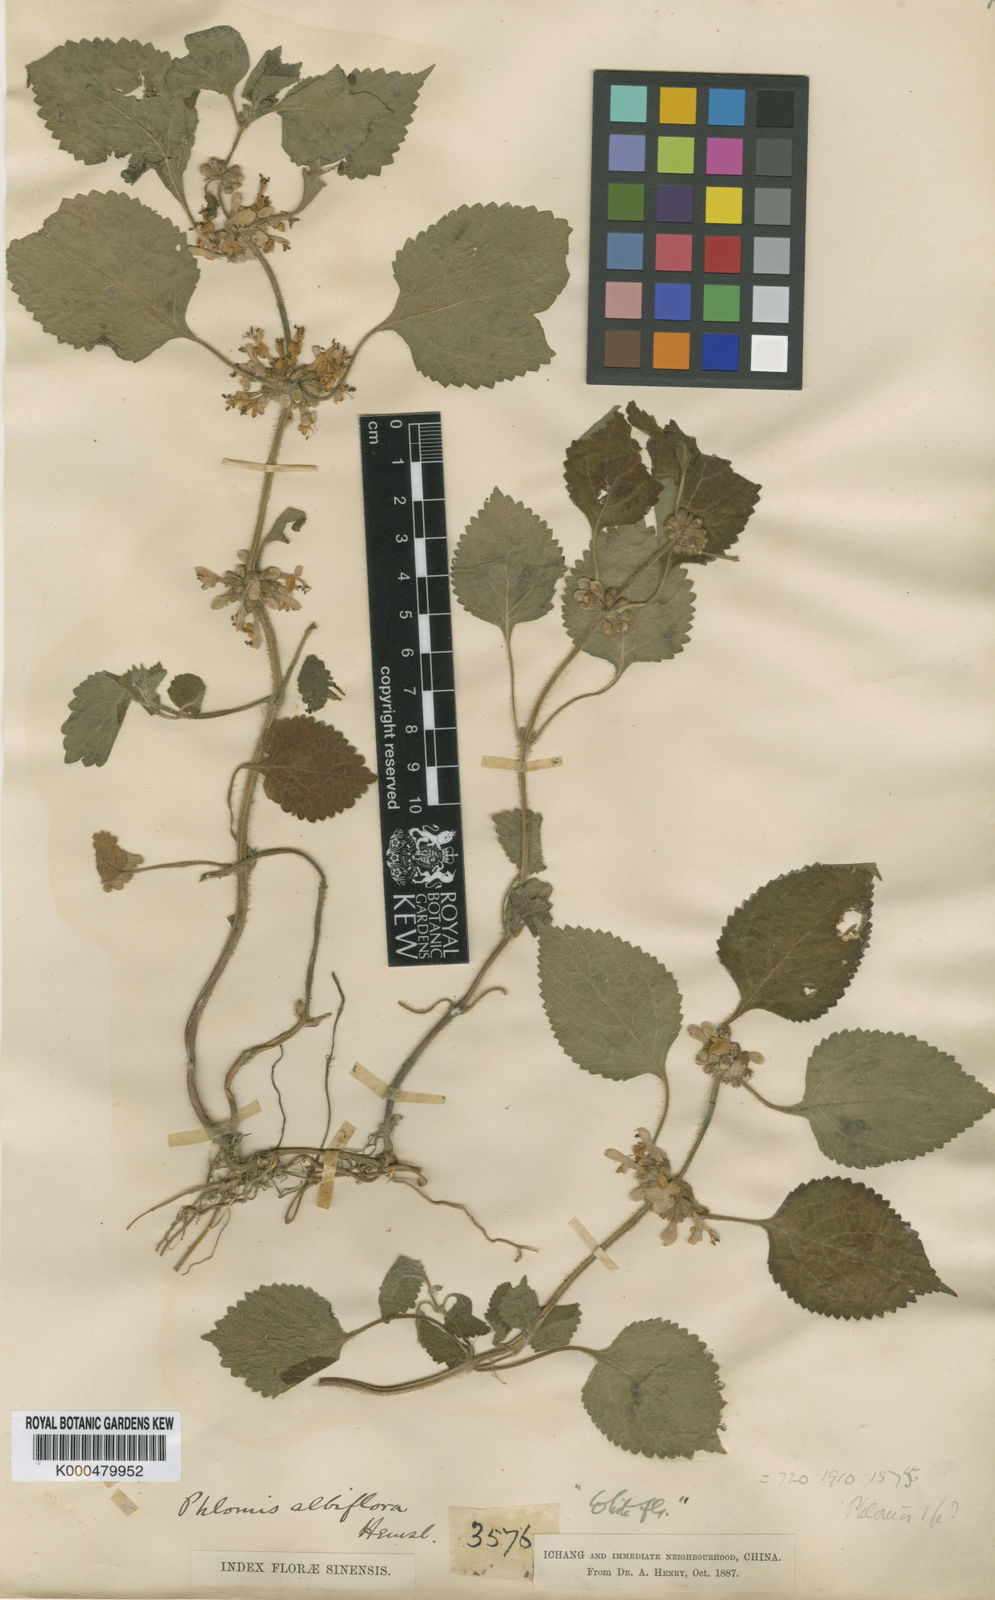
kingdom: Plantae
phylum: Tracheophyta
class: Magnoliopsida
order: Lamiales
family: Lamiaceae
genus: Paraphlomis
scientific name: Paraphlomis albiflora
